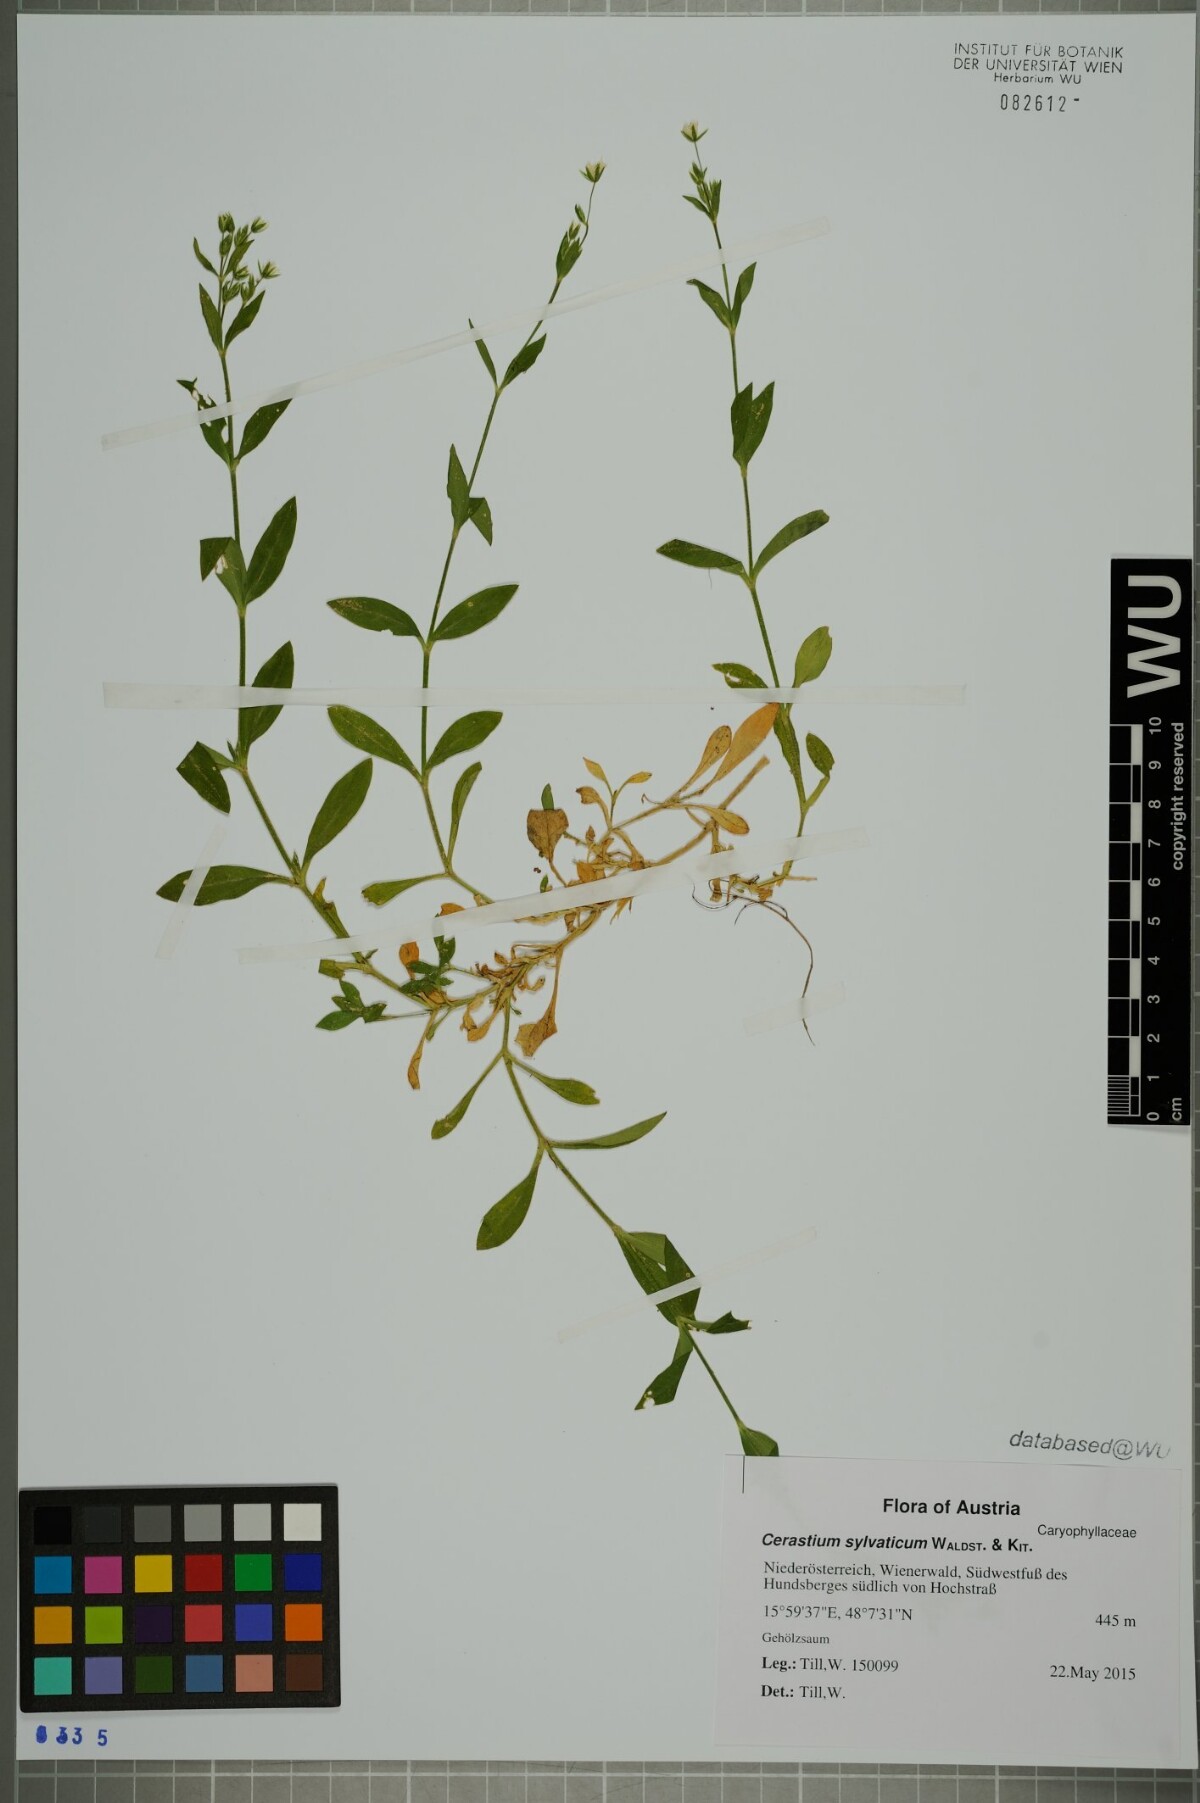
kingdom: Plantae
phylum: Tracheophyta
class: Magnoliopsida
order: Caryophyllales
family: Caryophyllaceae
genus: Cerastium
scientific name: Cerastium sylvaticum
